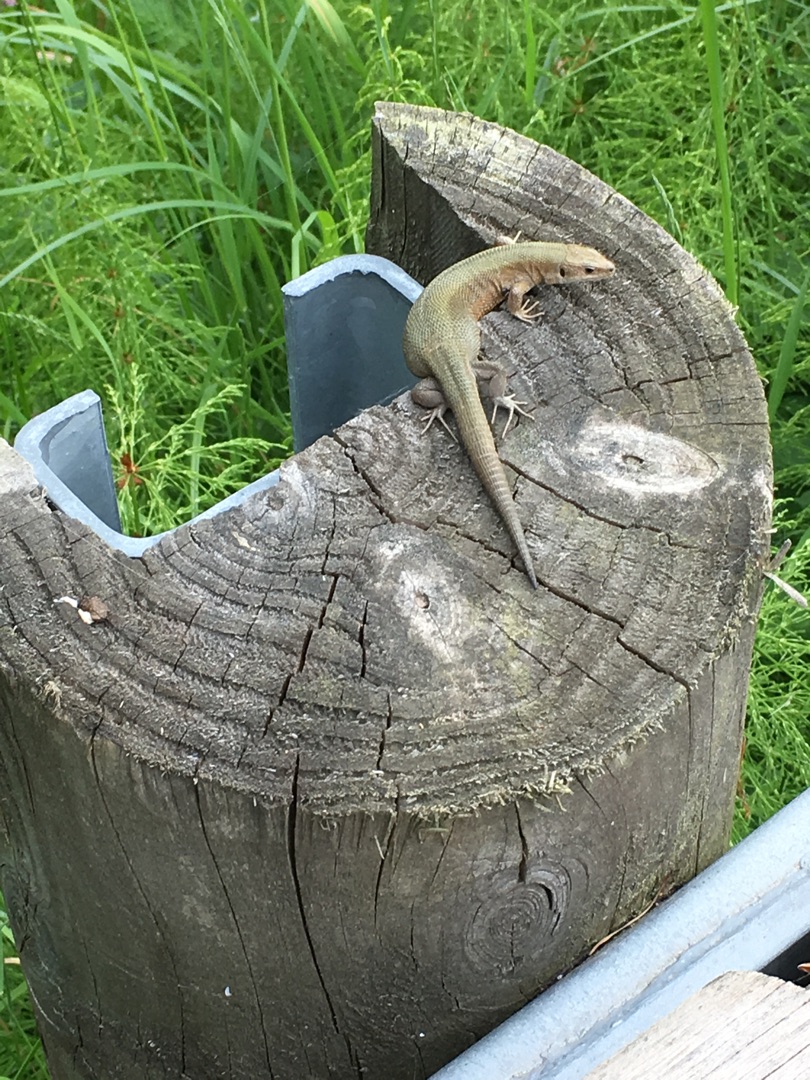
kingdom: Animalia
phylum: Chordata
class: Squamata
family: Lacertidae
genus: Zootoca
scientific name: Zootoca vivipara
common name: Skovfirben
